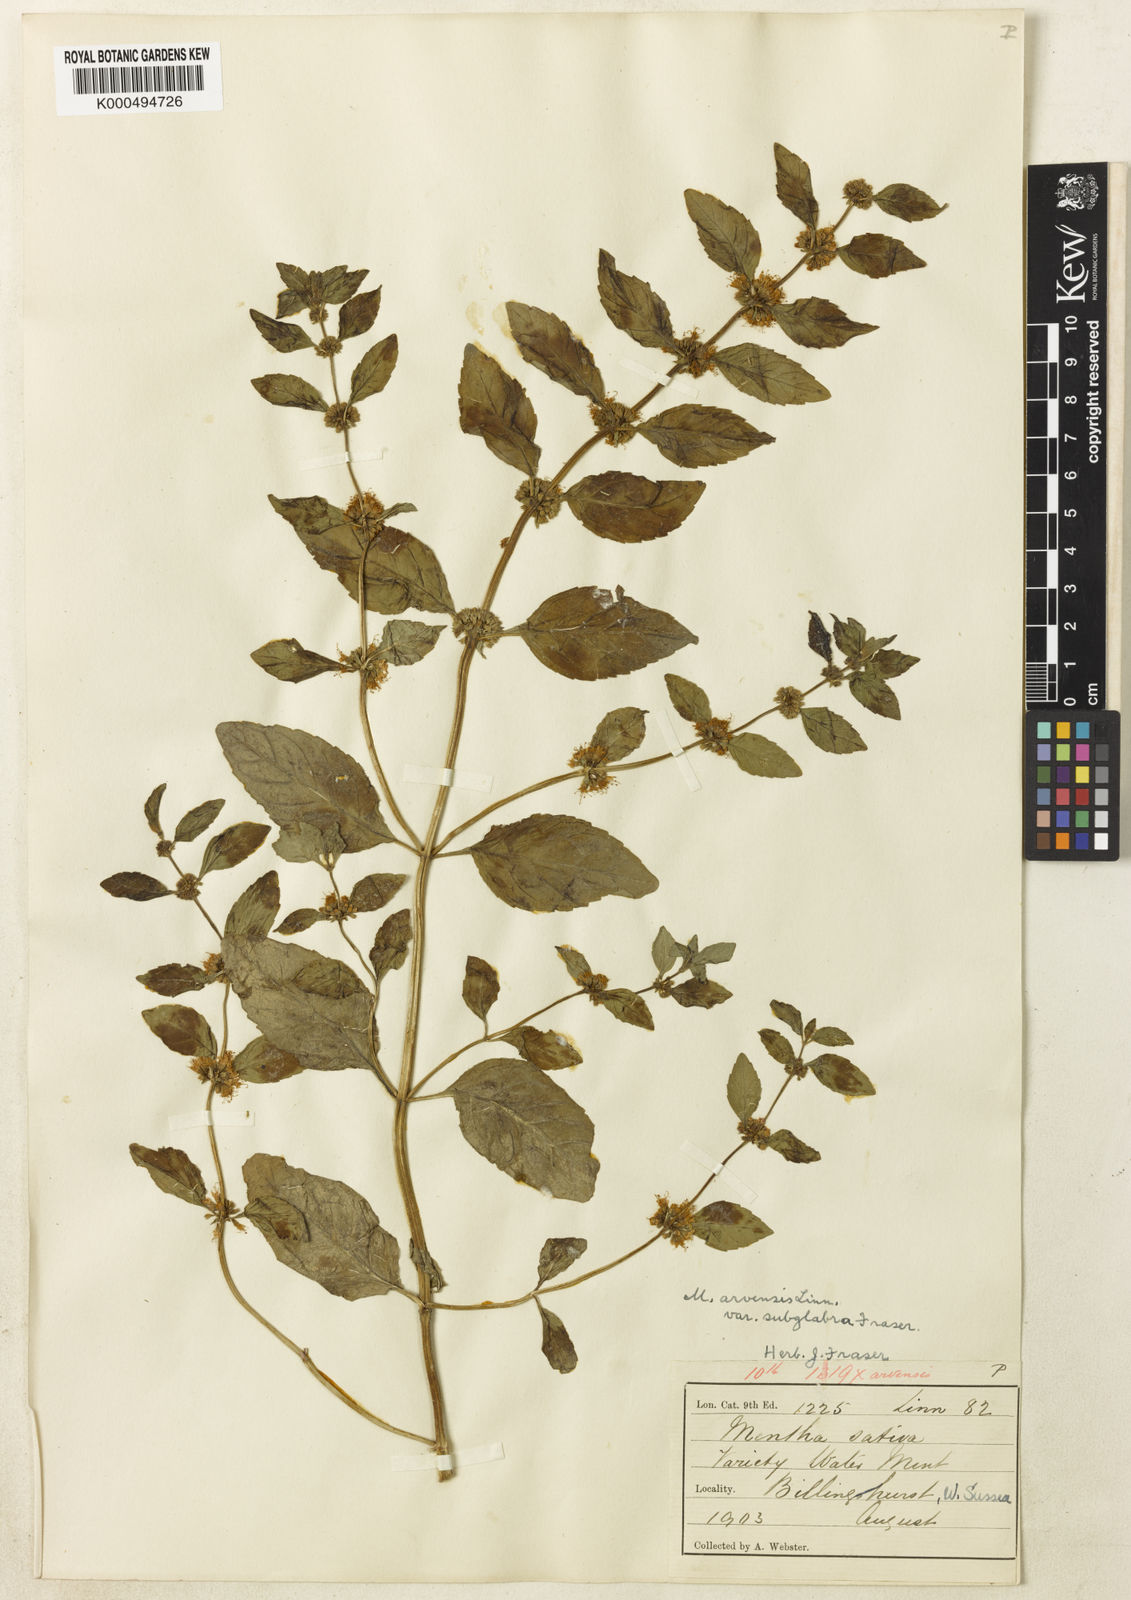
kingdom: Plantae
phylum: Tracheophyta
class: Magnoliopsida
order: Lamiales
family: Lamiaceae
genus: Mentha
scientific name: Mentha arvensis
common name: Corn mint
